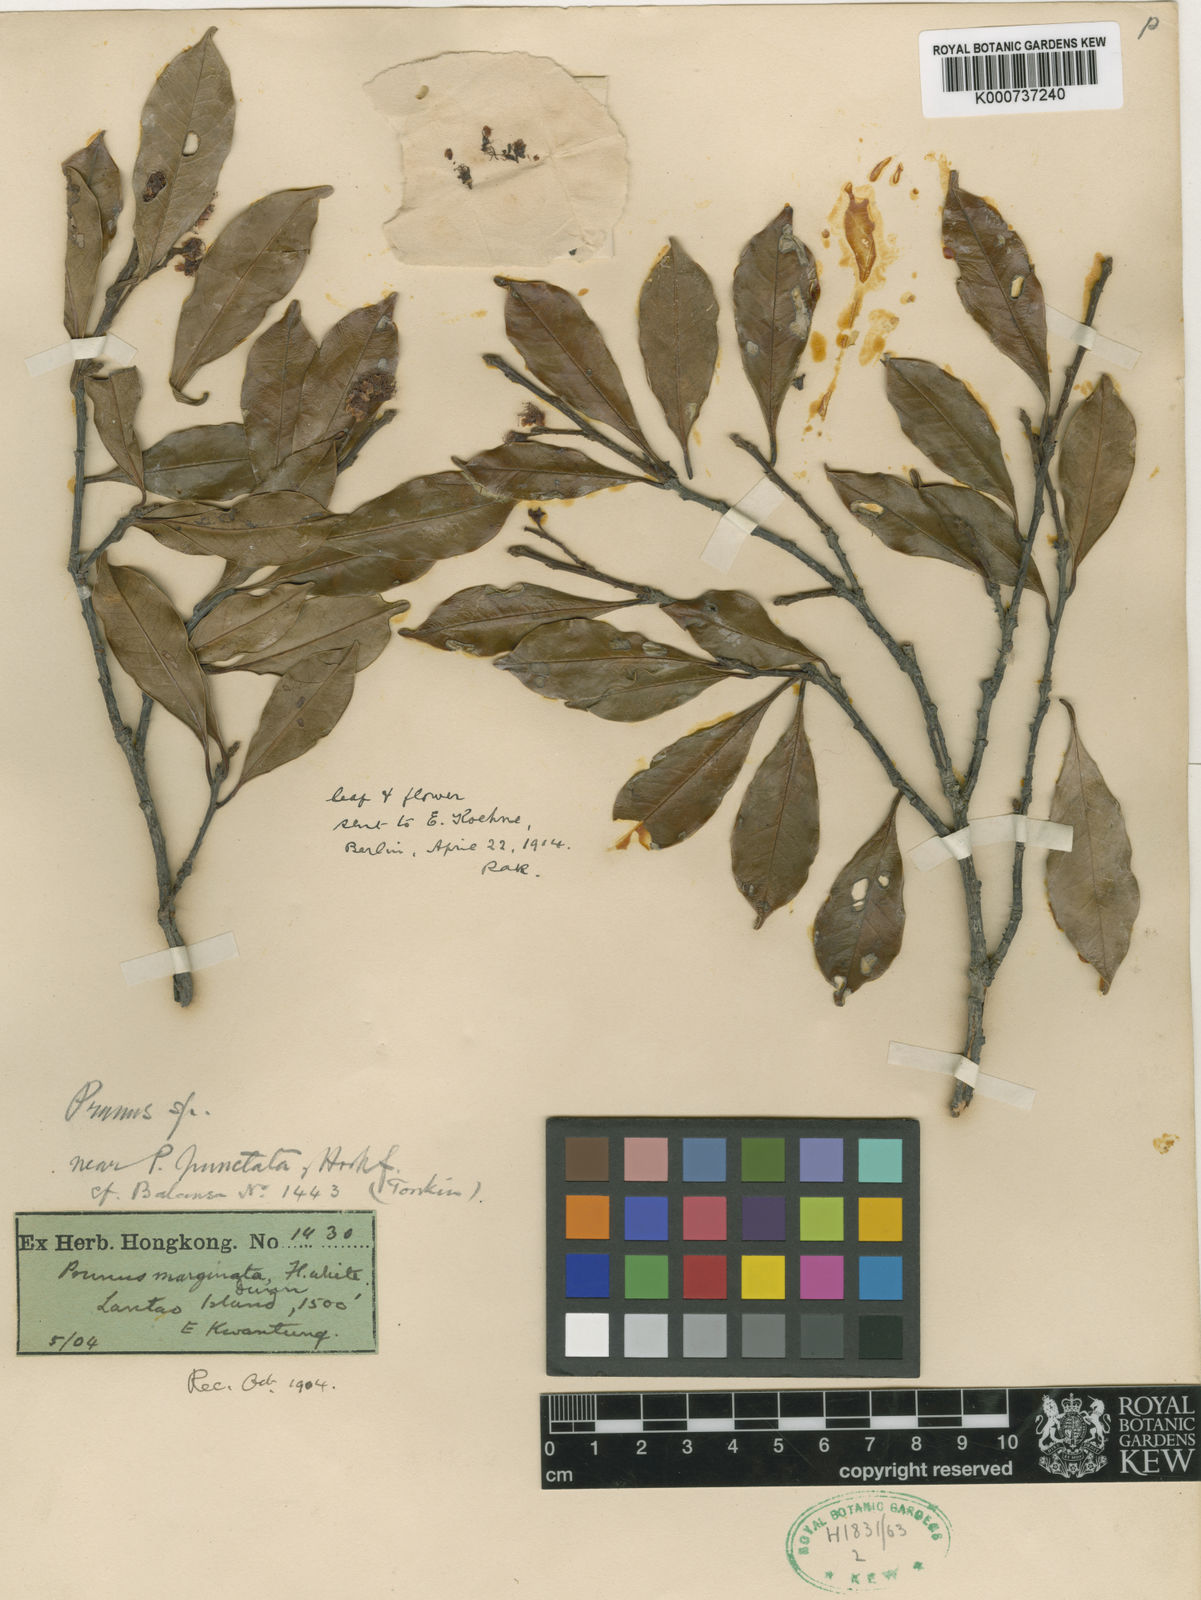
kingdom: Plantae
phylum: Tracheophyta
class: Magnoliopsida
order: Rosales
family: Rosaceae
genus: Prunus
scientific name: Prunus spinulosa
